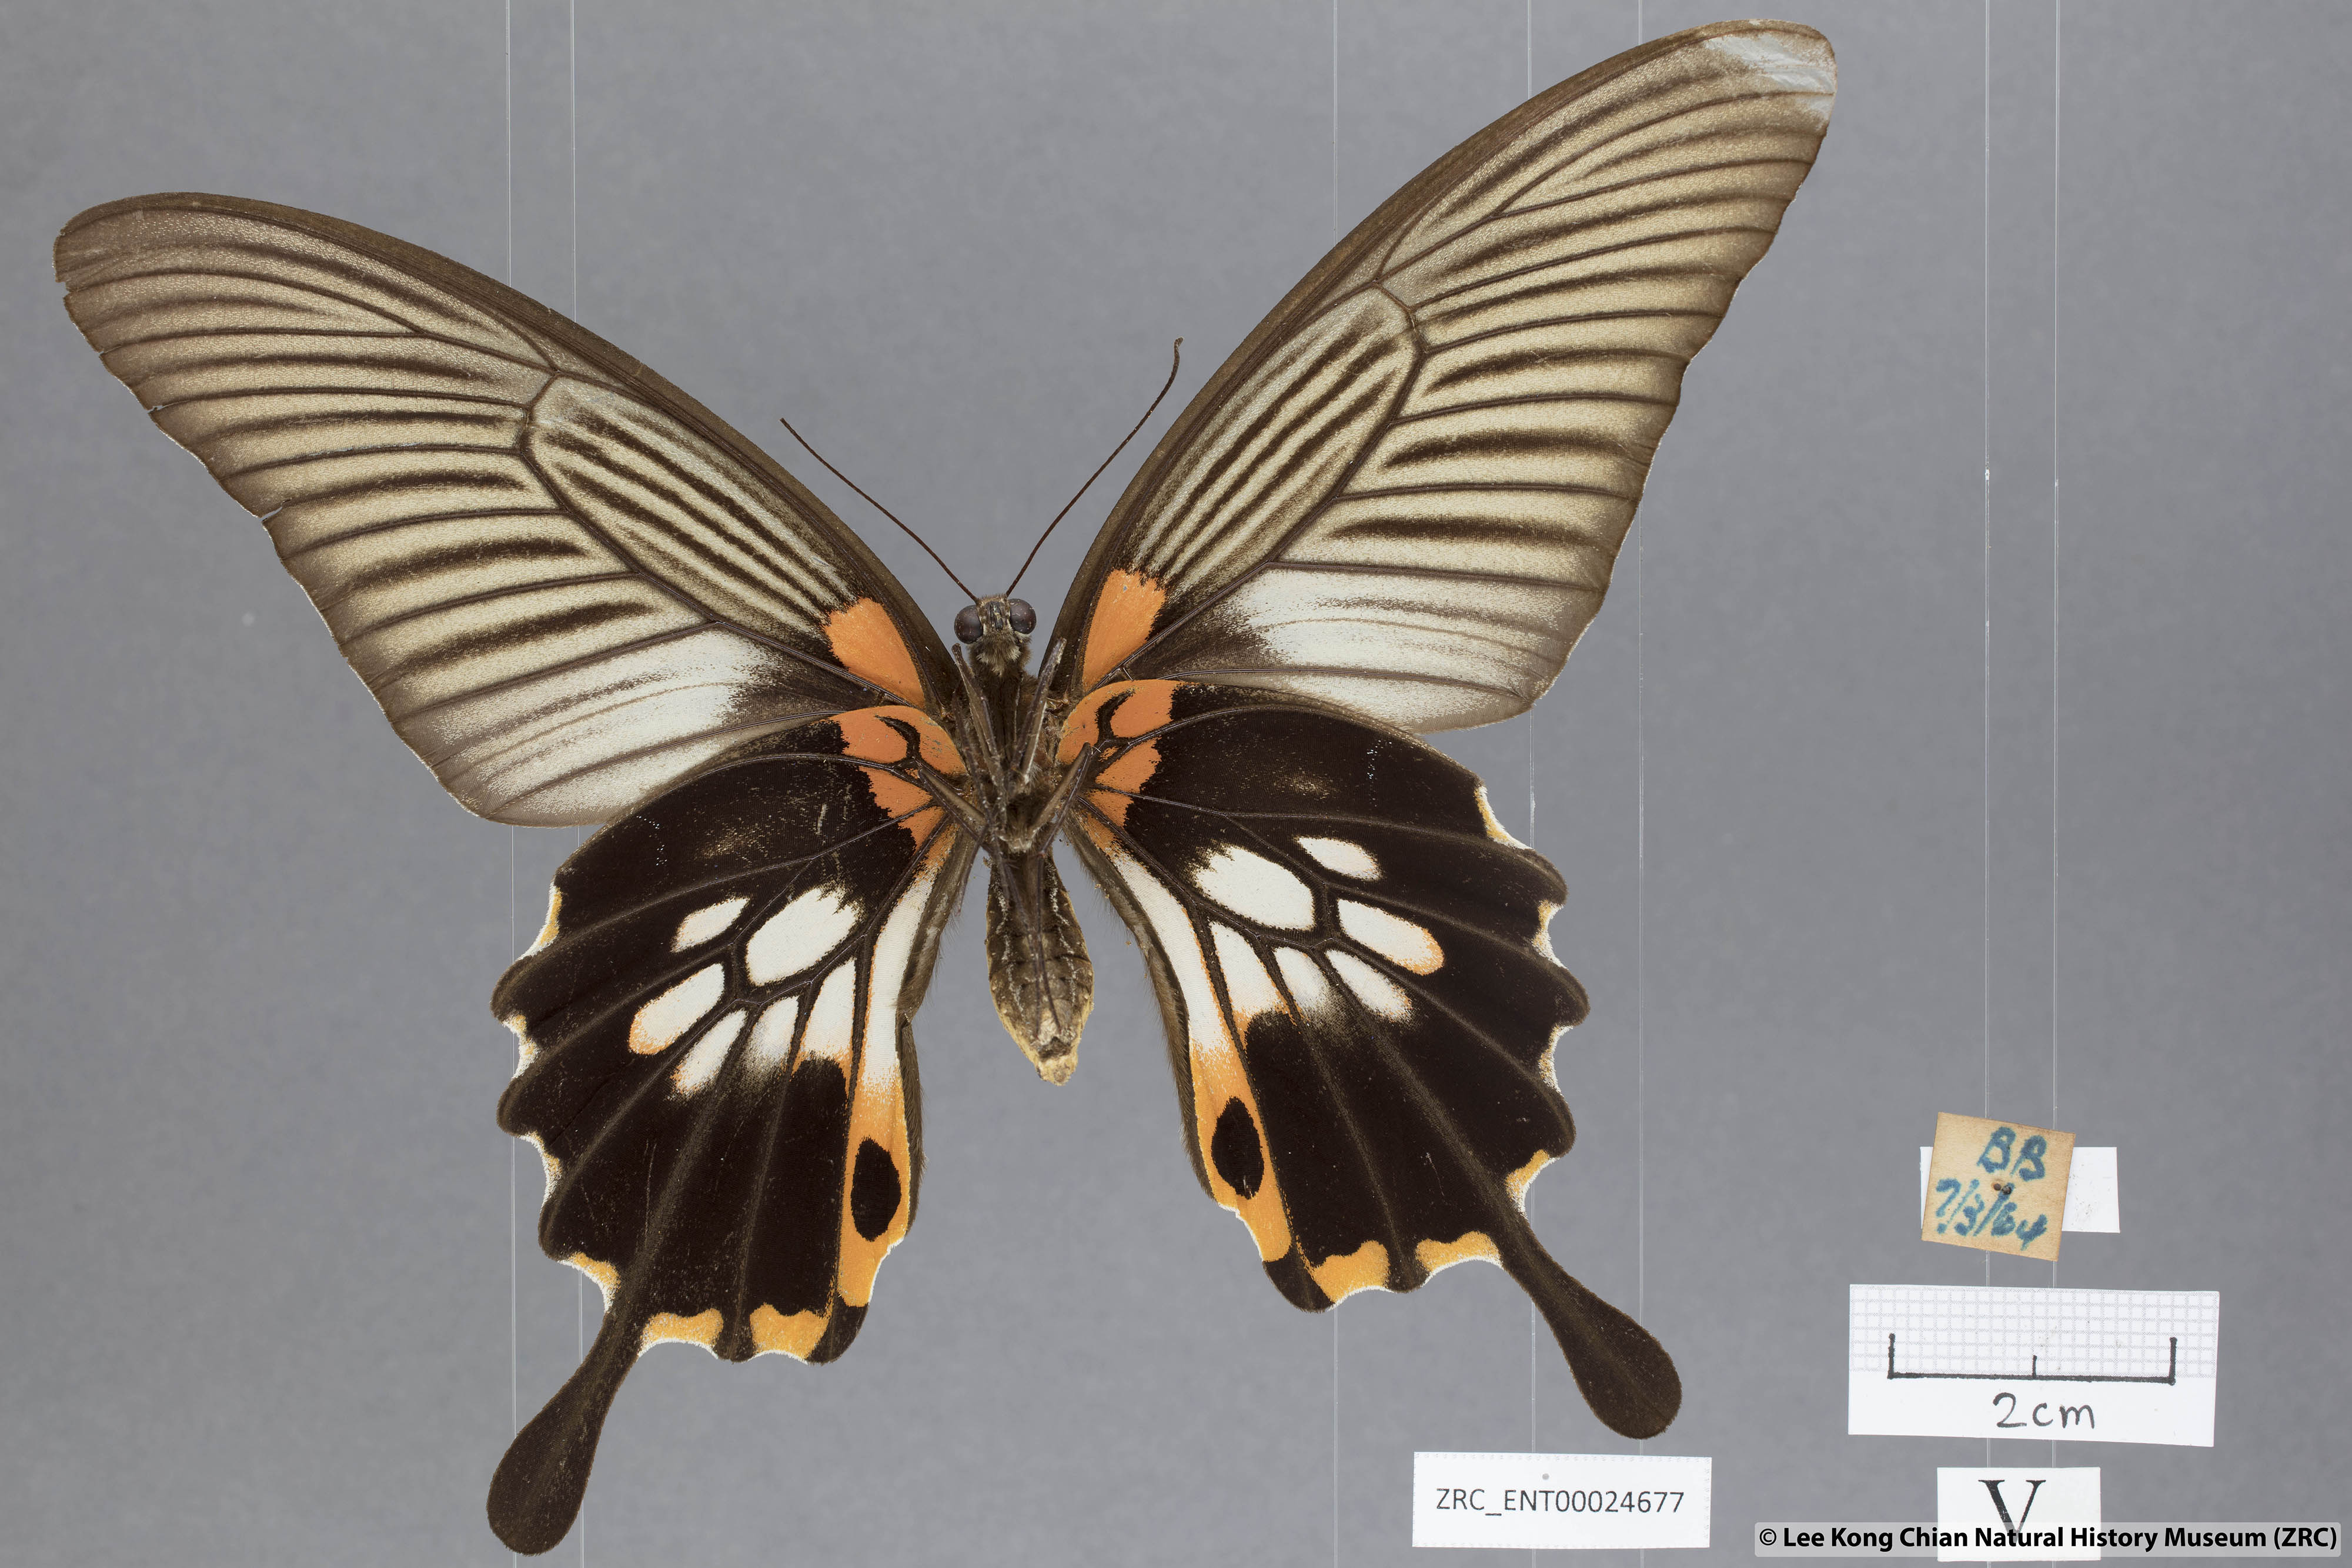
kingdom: Animalia
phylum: Arthropoda
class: Insecta
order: Lepidoptera
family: Papilionidae
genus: Papilio
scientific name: Papilio memnon
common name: Great mormon
